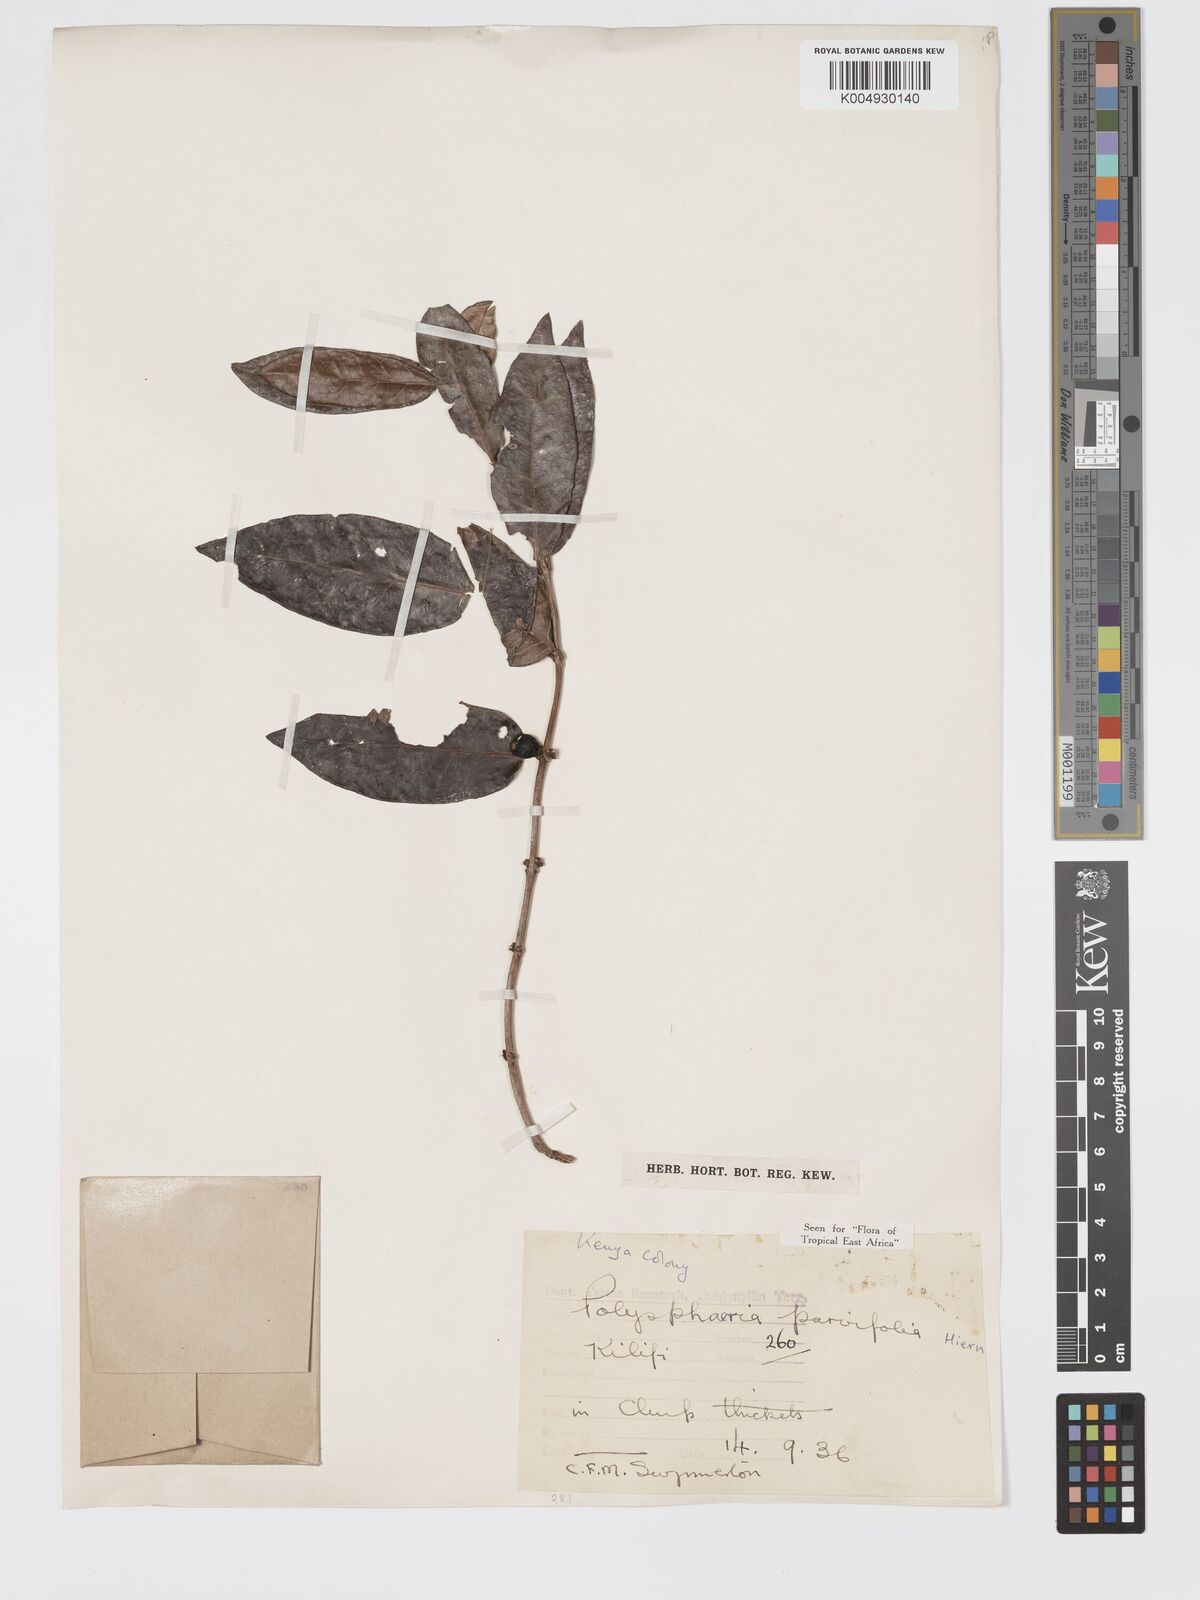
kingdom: Plantae
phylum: Tracheophyta
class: Magnoliopsida
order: Gentianales
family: Rubiaceae
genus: Polysphaeria
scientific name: Polysphaeria parvifolia
